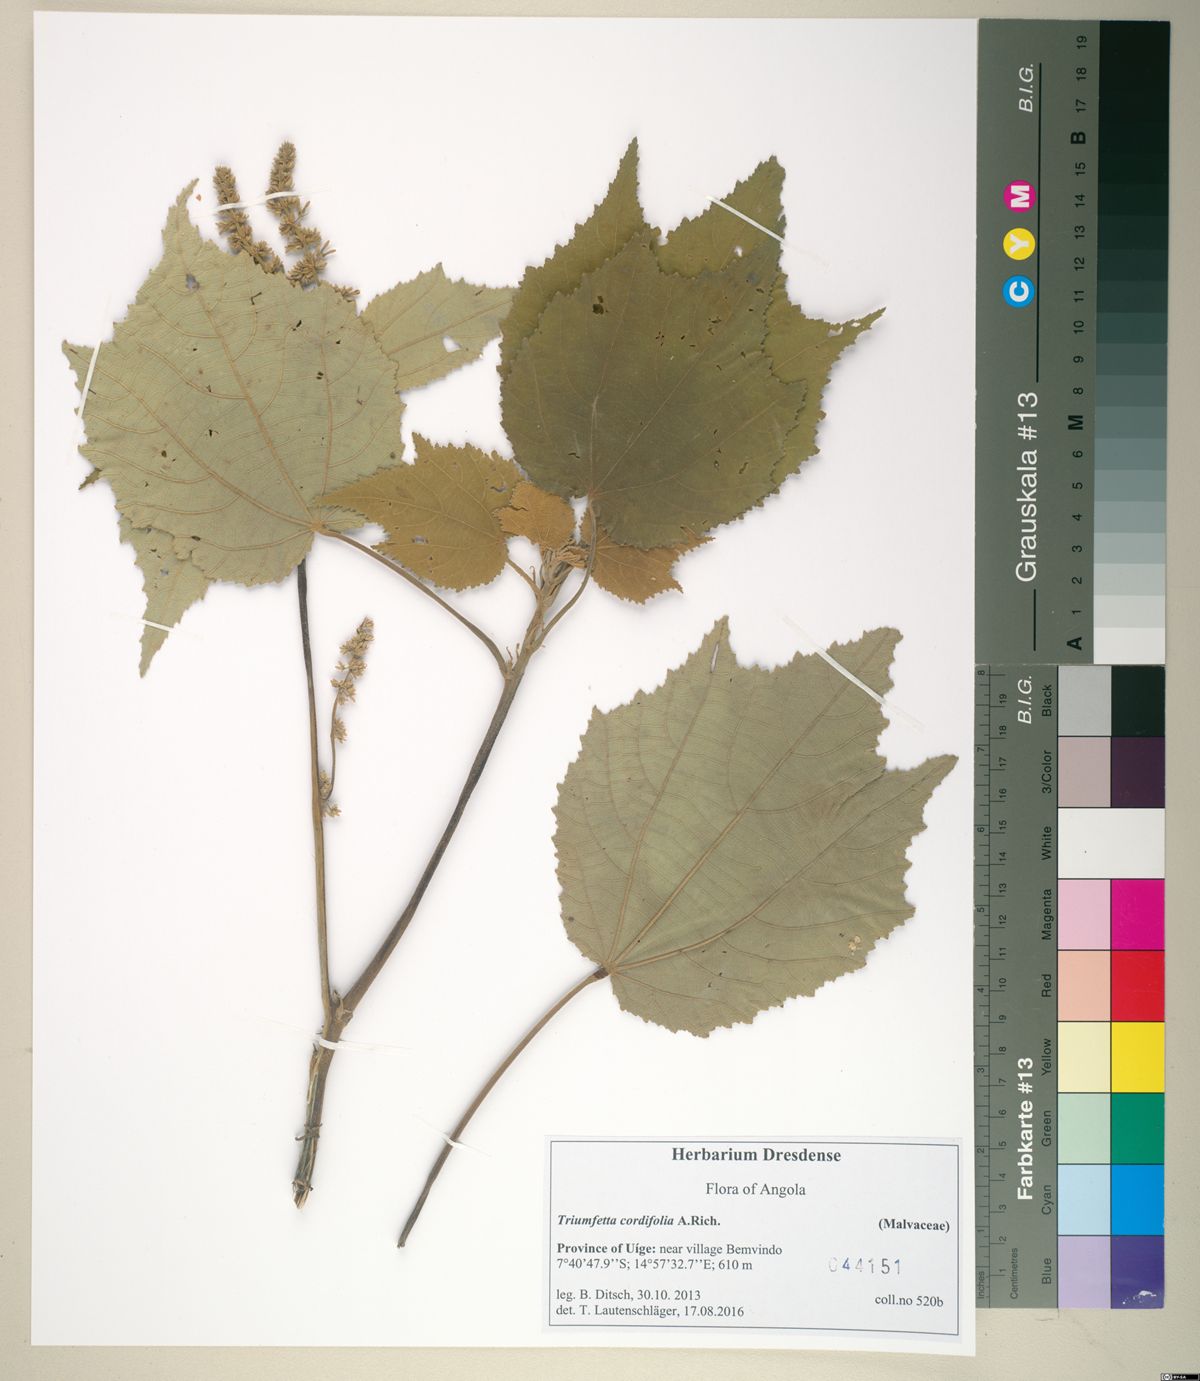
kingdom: Plantae
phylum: Tracheophyta
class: Magnoliopsida
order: Malvales
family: Malvaceae
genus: Triumfetta
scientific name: Triumfetta cordifolia
